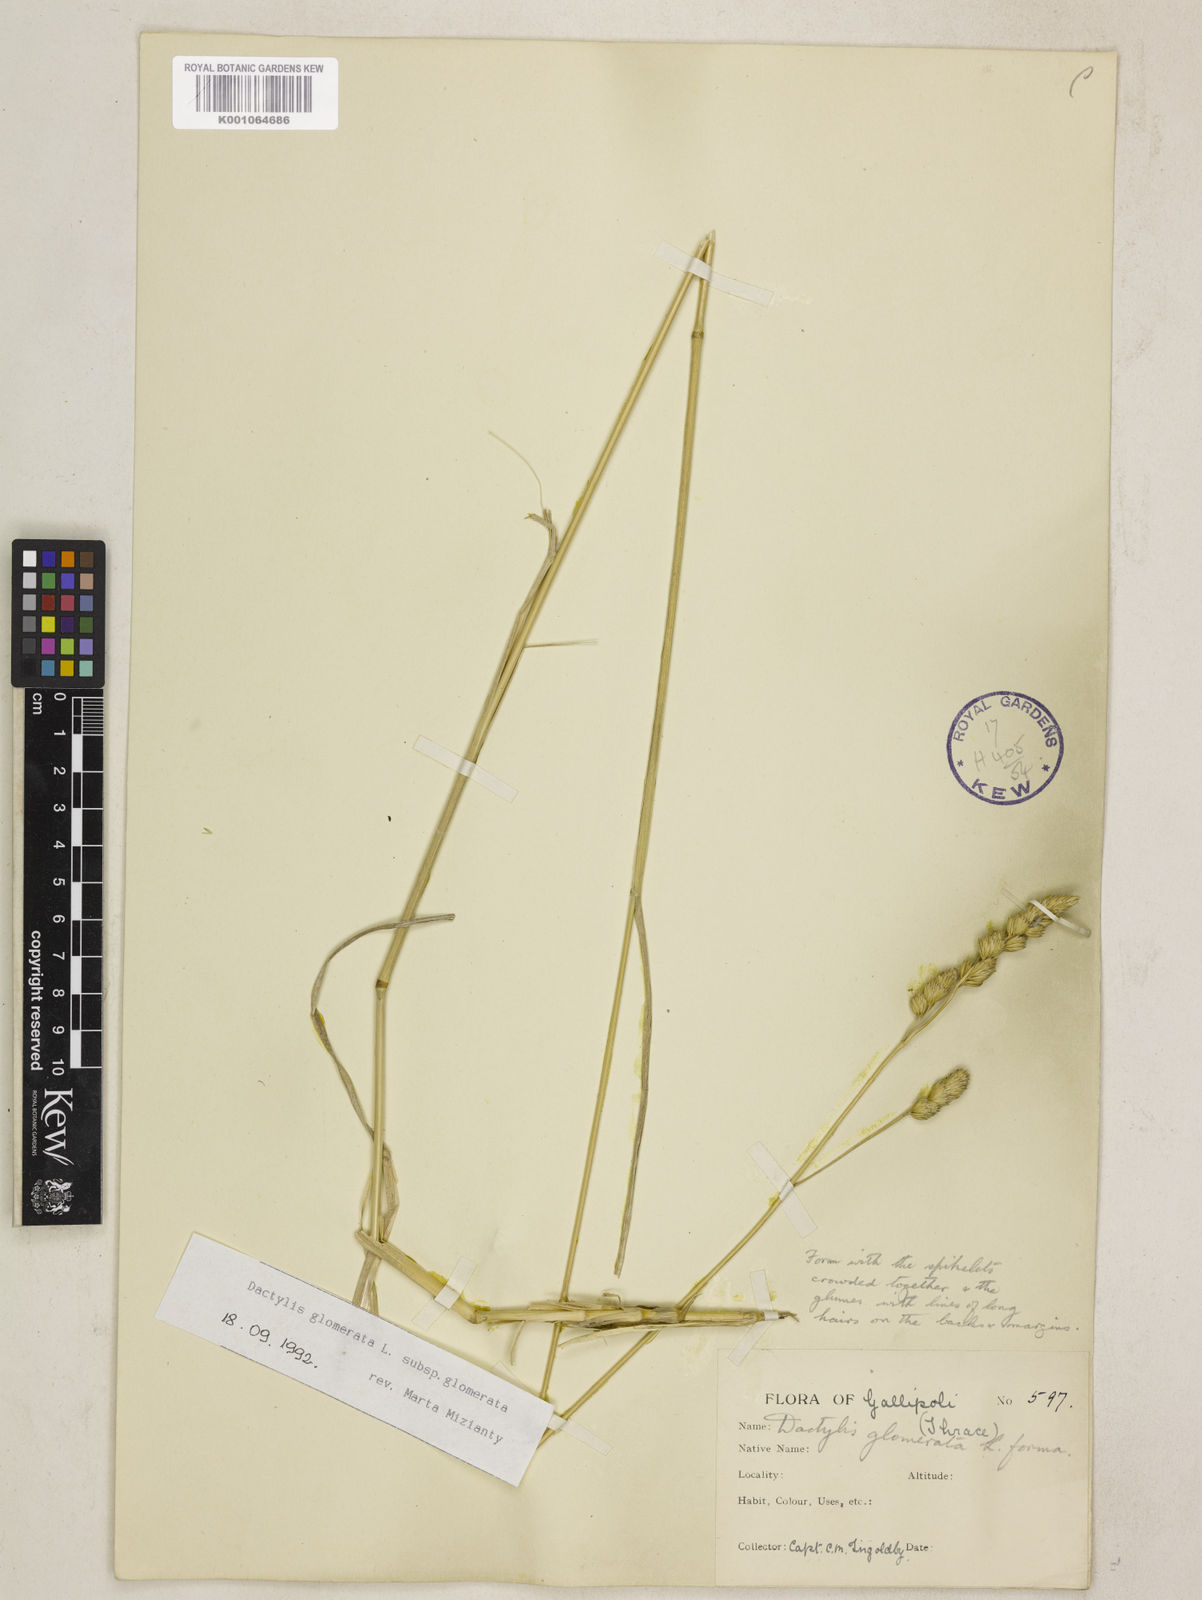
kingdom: Plantae
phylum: Tracheophyta
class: Liliopsida
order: Poales
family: Poaceae
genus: Dactylis
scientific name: Dactylis glomerata
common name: Orchardgrass
